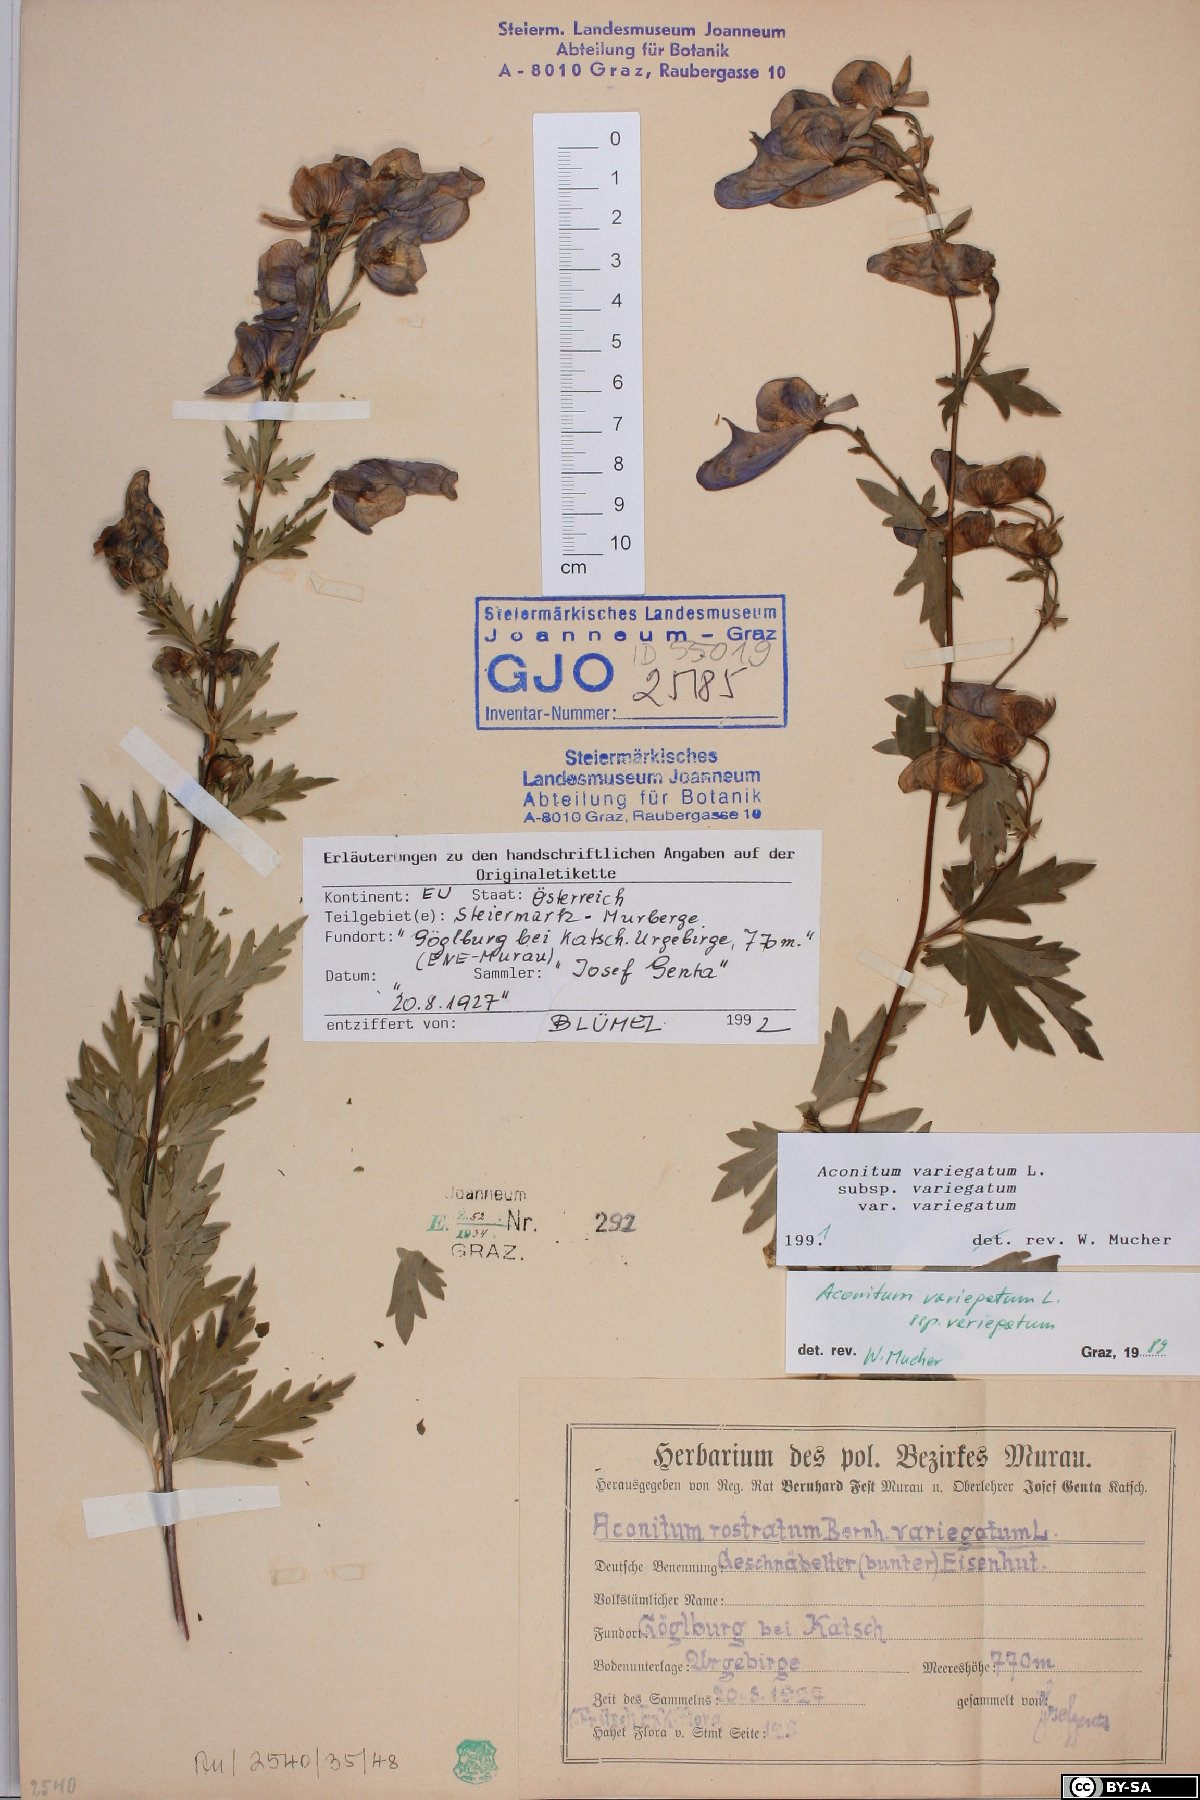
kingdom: Plantae
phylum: Tracheophyta
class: Magnoliopsida
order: Ranunculales
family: Ranunculaceae
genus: Aconitum
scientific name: Aconitum variegatum
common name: Manchurian monkshood
